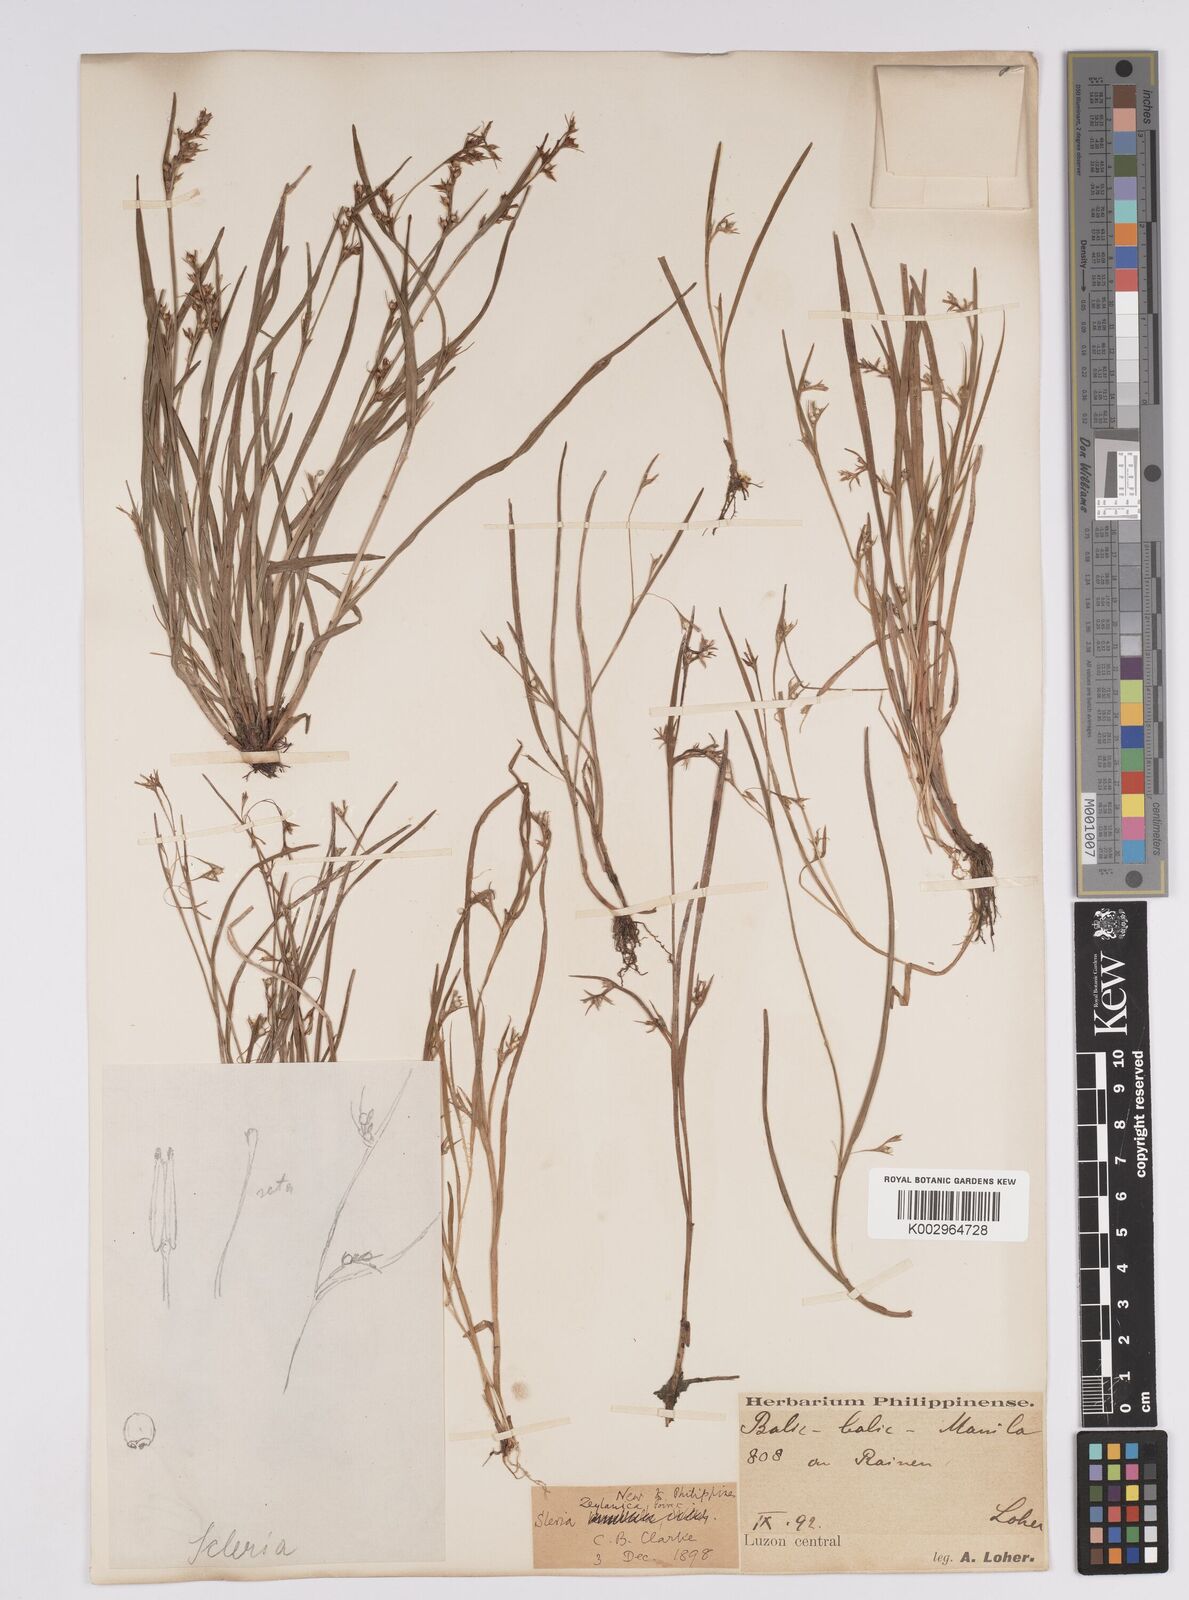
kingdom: Plantae
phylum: Tracheophyta
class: Liliopsida
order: Poales
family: Cyperaceae
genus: Scleria
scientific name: Scleria levis
